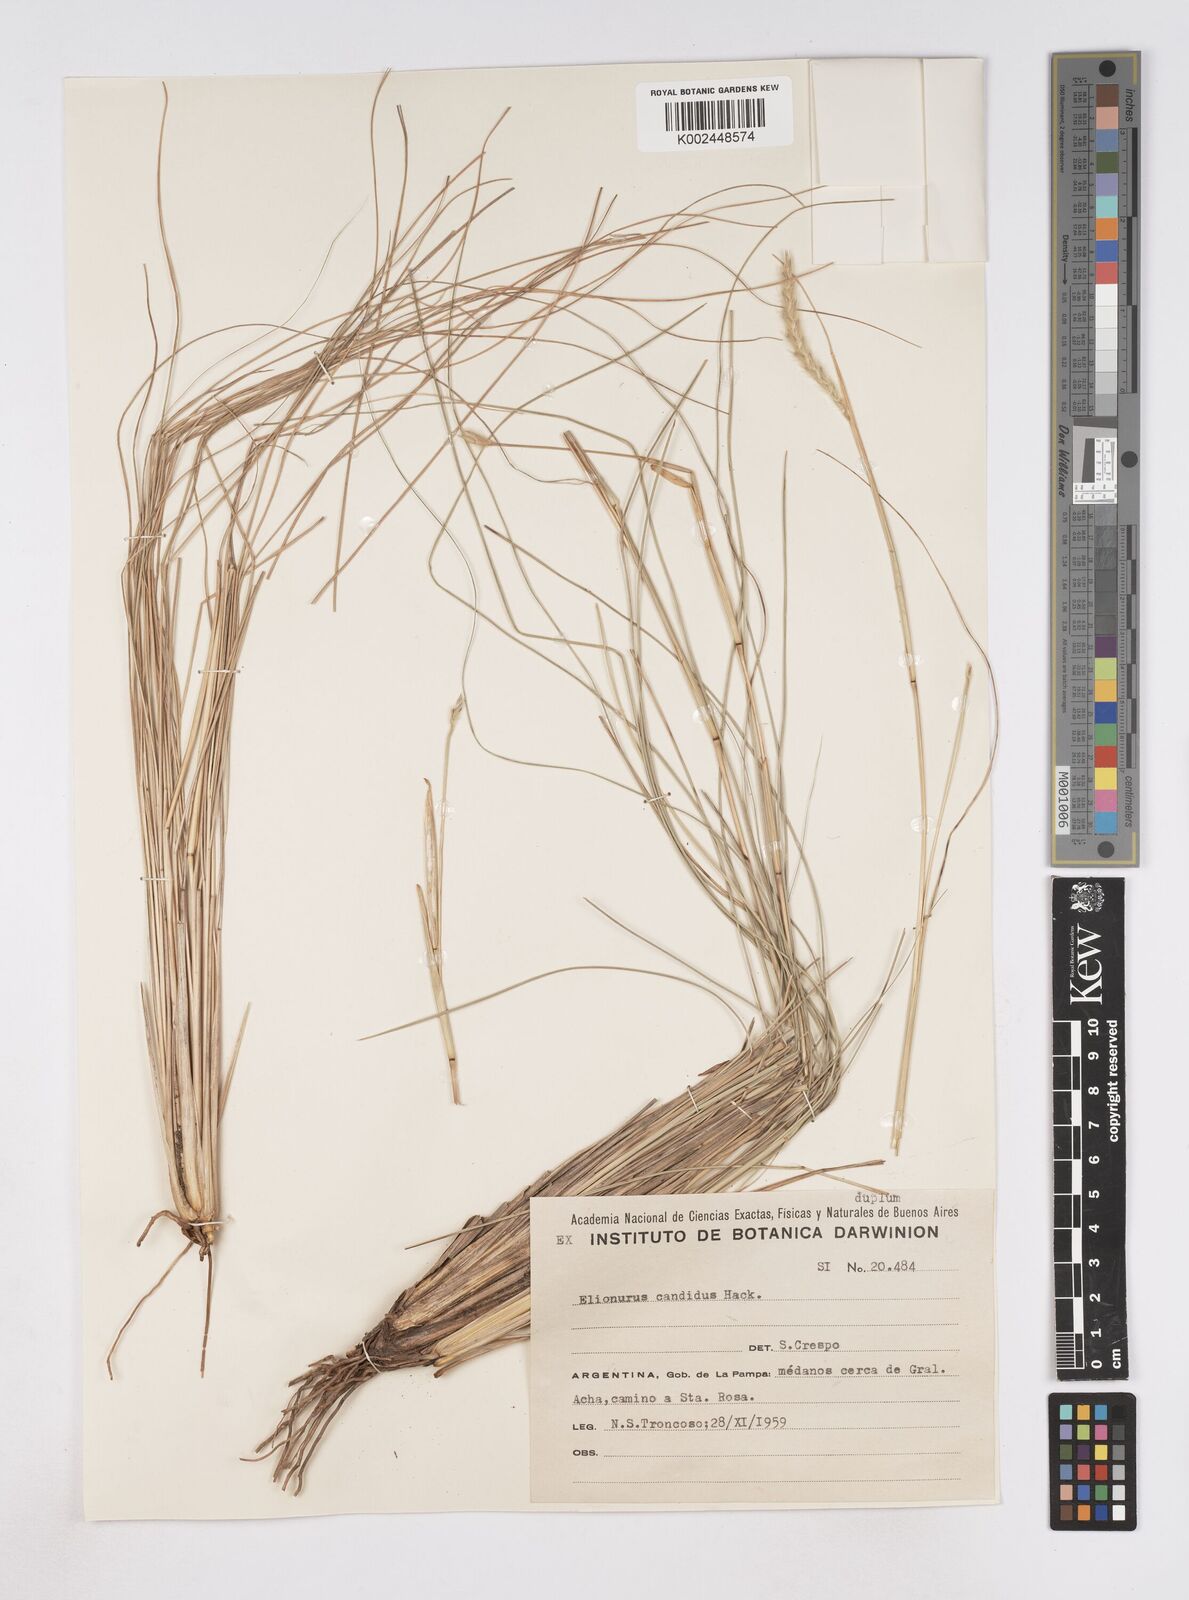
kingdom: Plantae
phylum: Tracheophyta
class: Liliopsida
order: Poales
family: Poaceae
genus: Elionurus
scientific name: Elionurus muticus
